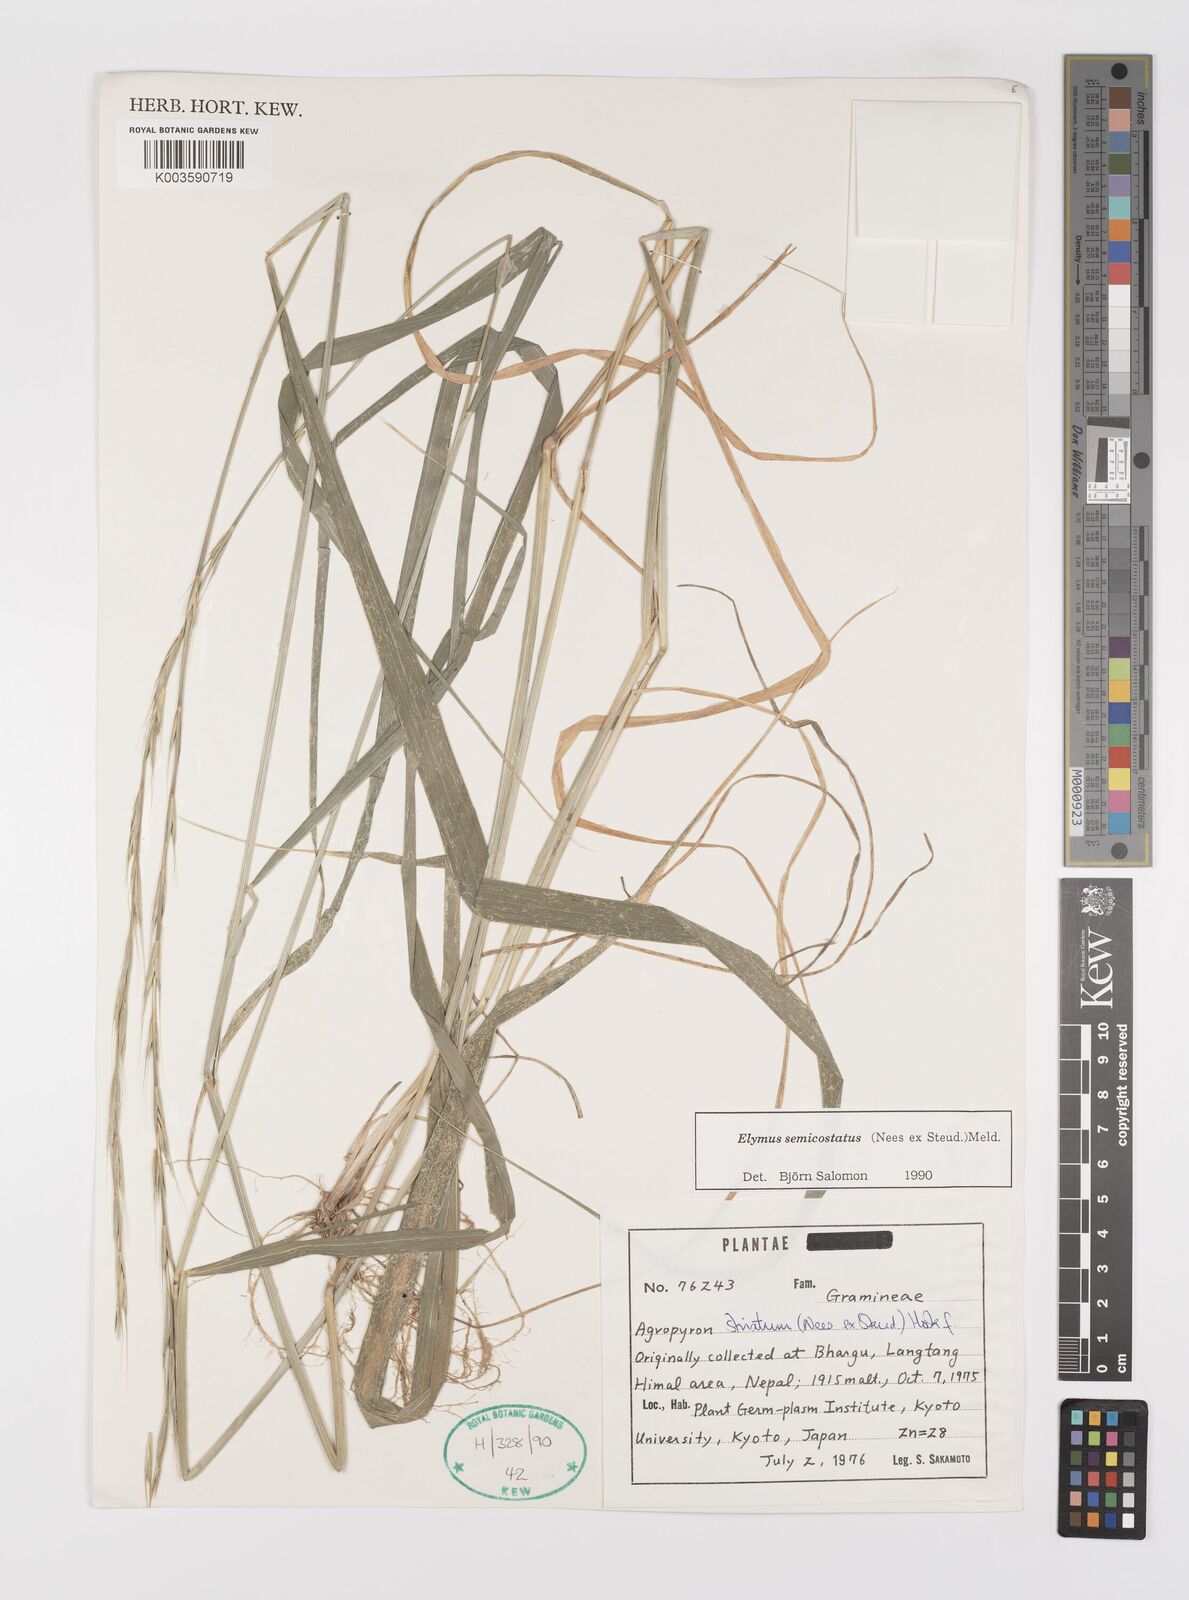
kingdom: Plantae
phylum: Tracheophyta
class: Liliopsida
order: Poales
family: Poaceae
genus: Elymus
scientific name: Elymus semicostatus
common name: Drooping wildrye
